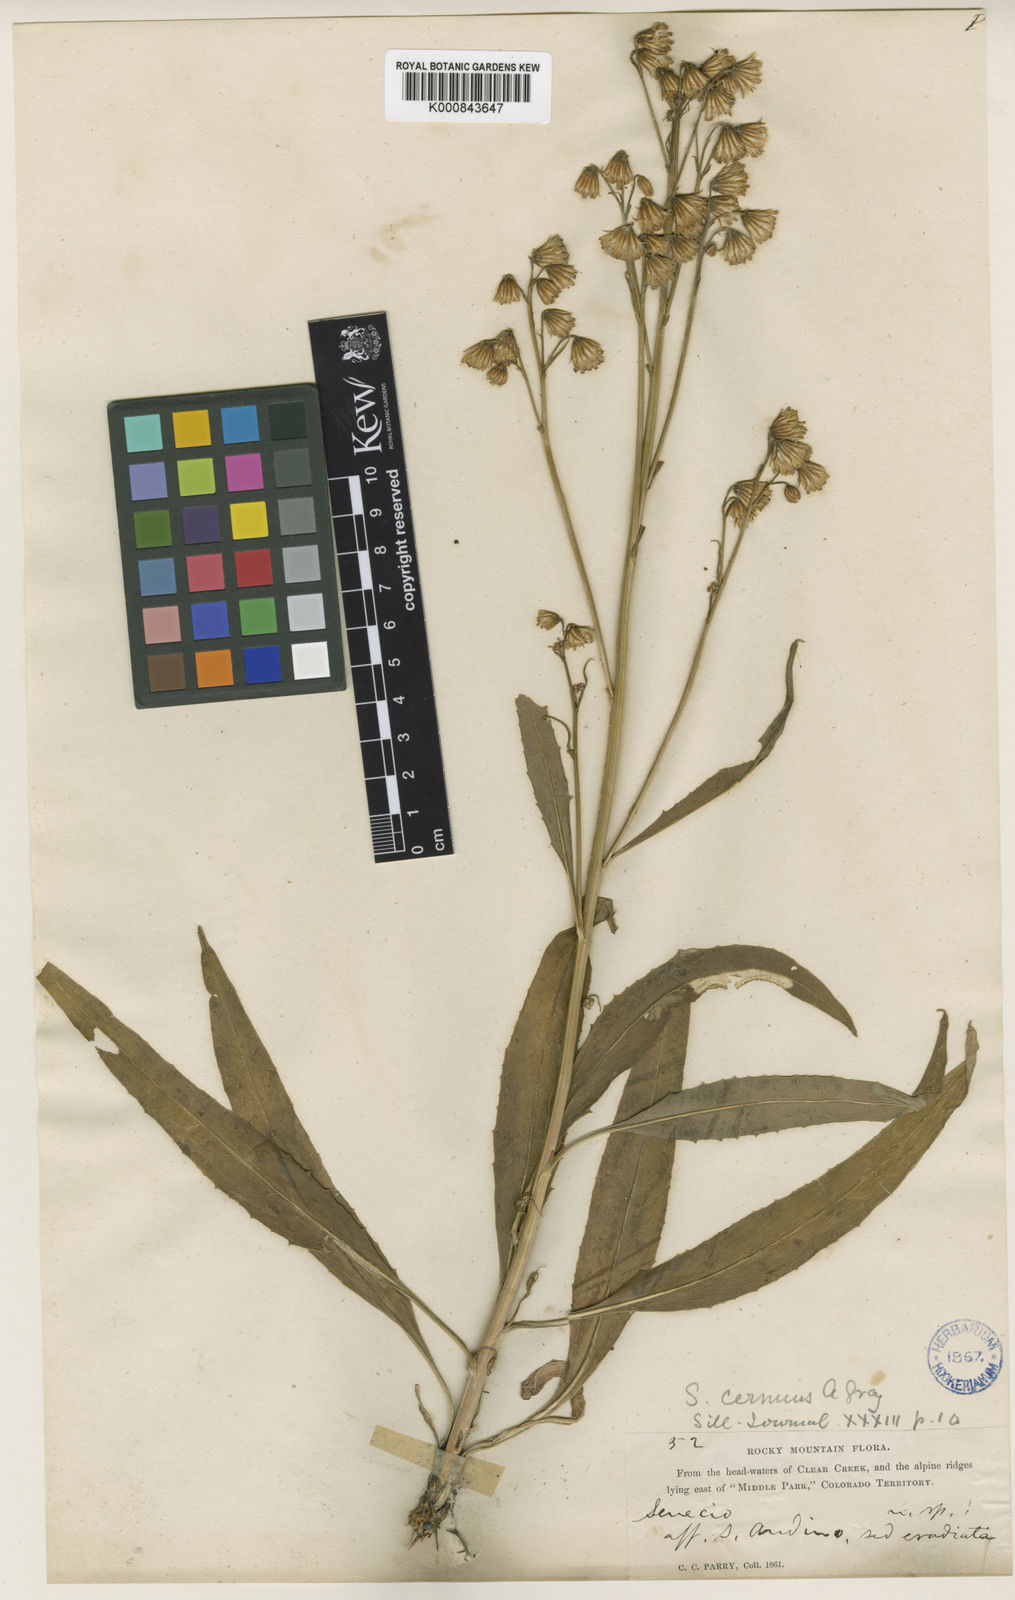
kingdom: Plantae
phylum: Tracheophyta
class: Magnoliopsida
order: Asterales
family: Asteraceae
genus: Senecio
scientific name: Senecio pudicus
